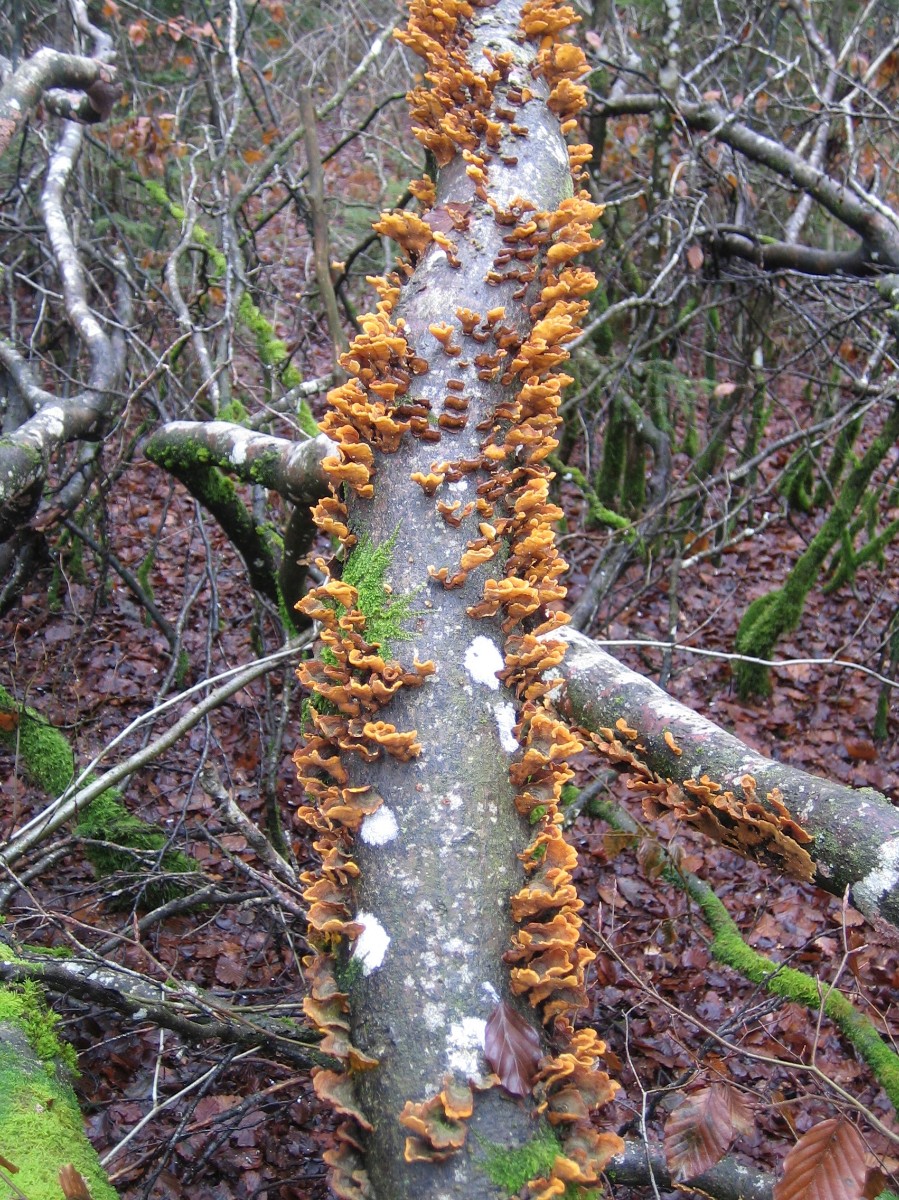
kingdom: Fungi
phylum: Basidiomycota
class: Agaricomycetes
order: Russulales
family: Stereaceae
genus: Stereum
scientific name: Stereum subtomentosum
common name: smuk lædersvamp
